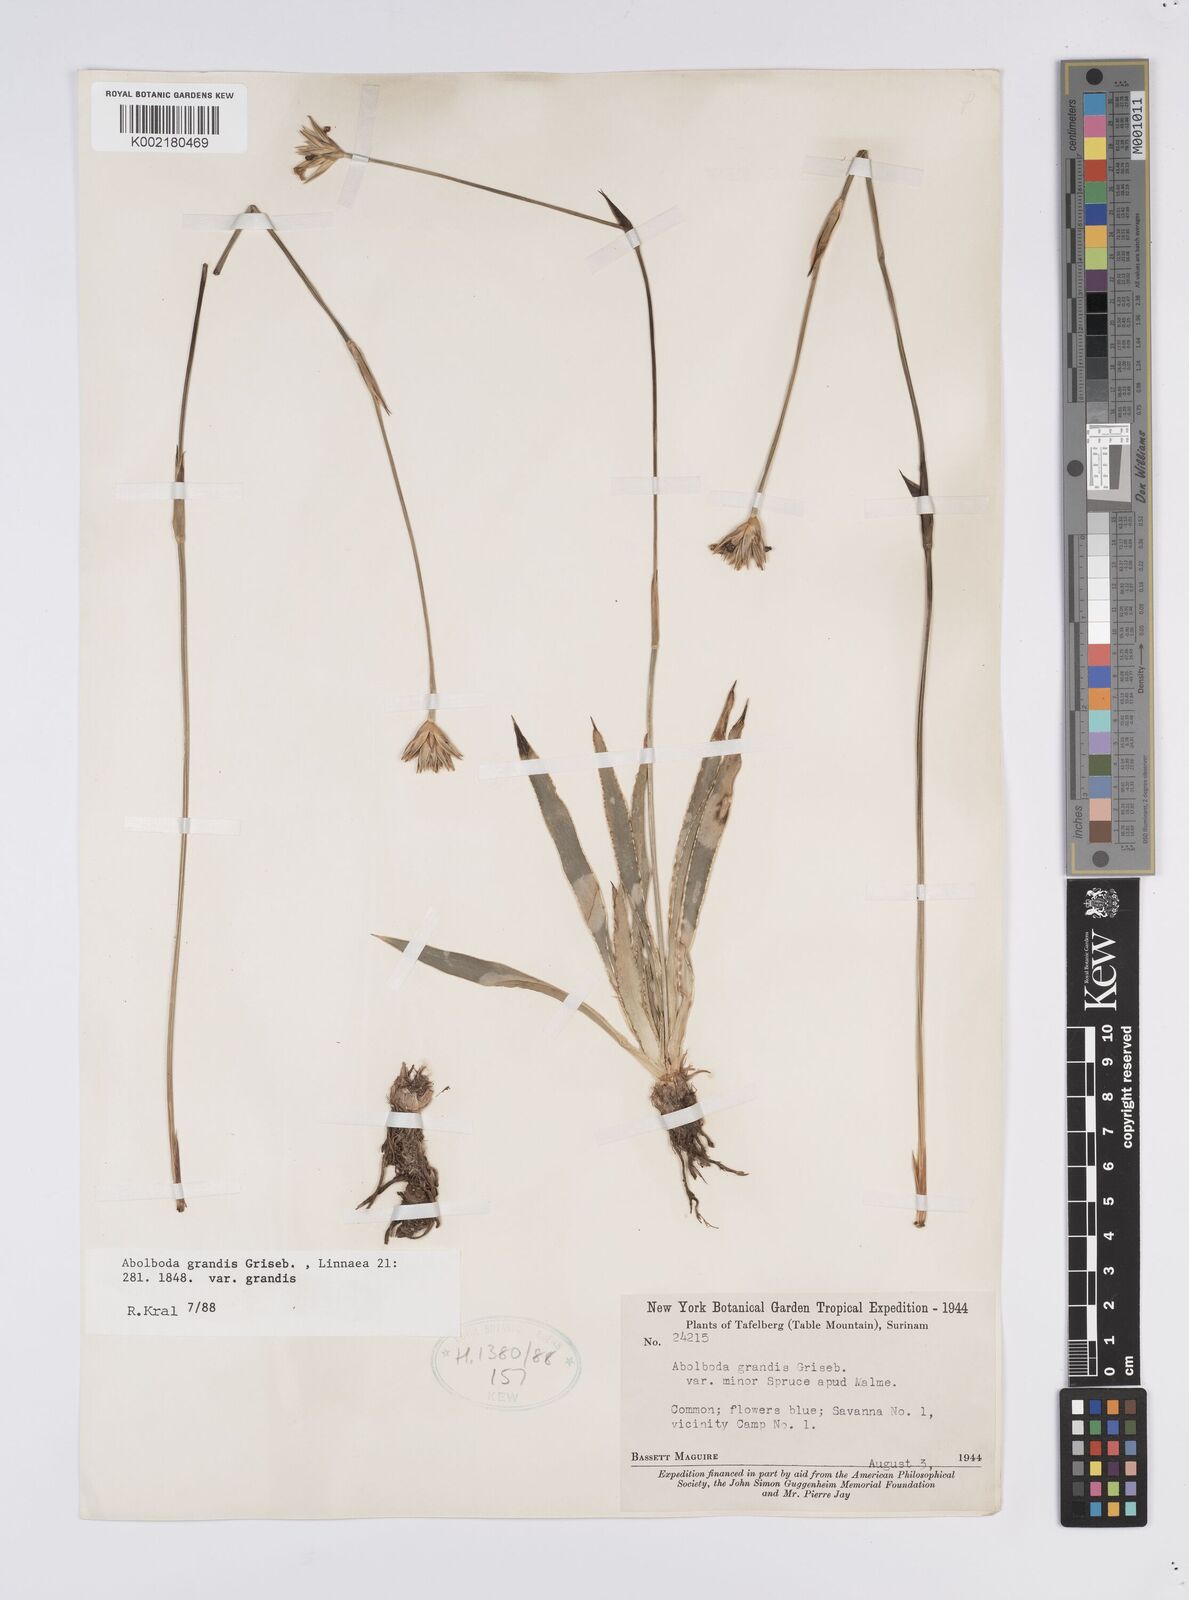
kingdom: Plantae
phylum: Tracheophyta
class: Liliopsida
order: Poales
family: Xyridaceae
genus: Abolboda
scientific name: Abolboda grandis
